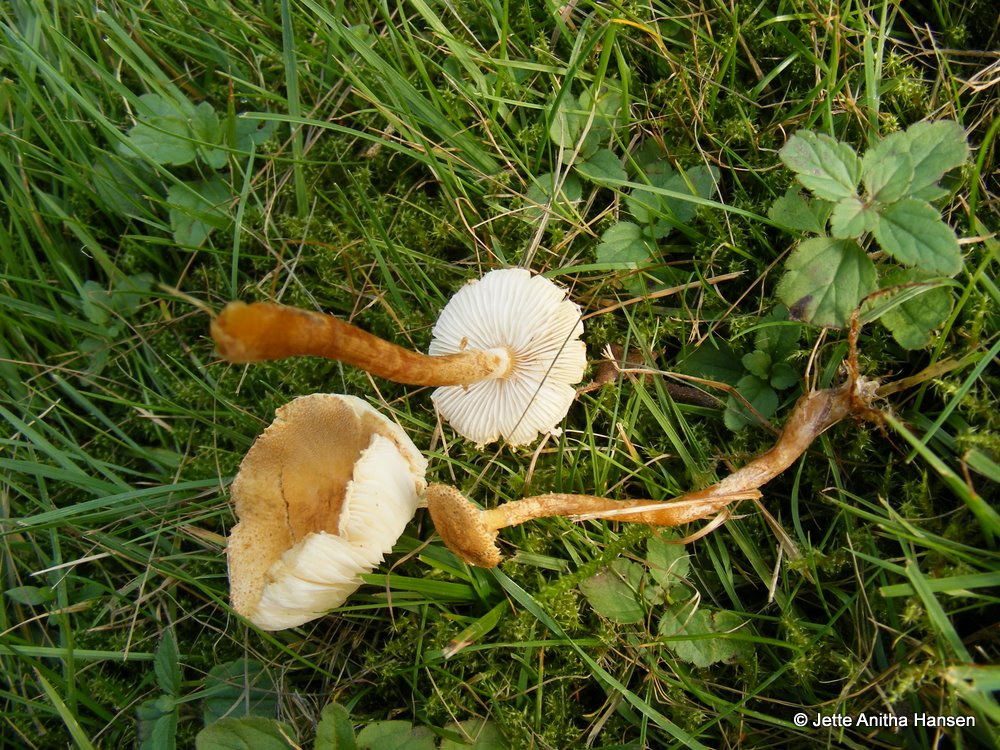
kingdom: Fungi
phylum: Basidiomycota
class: Agaricomycetes
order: Agaricales
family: Tricholomataceae
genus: Cystoderma
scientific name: Cystoderma amianthinum
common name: okkergul grynhat
